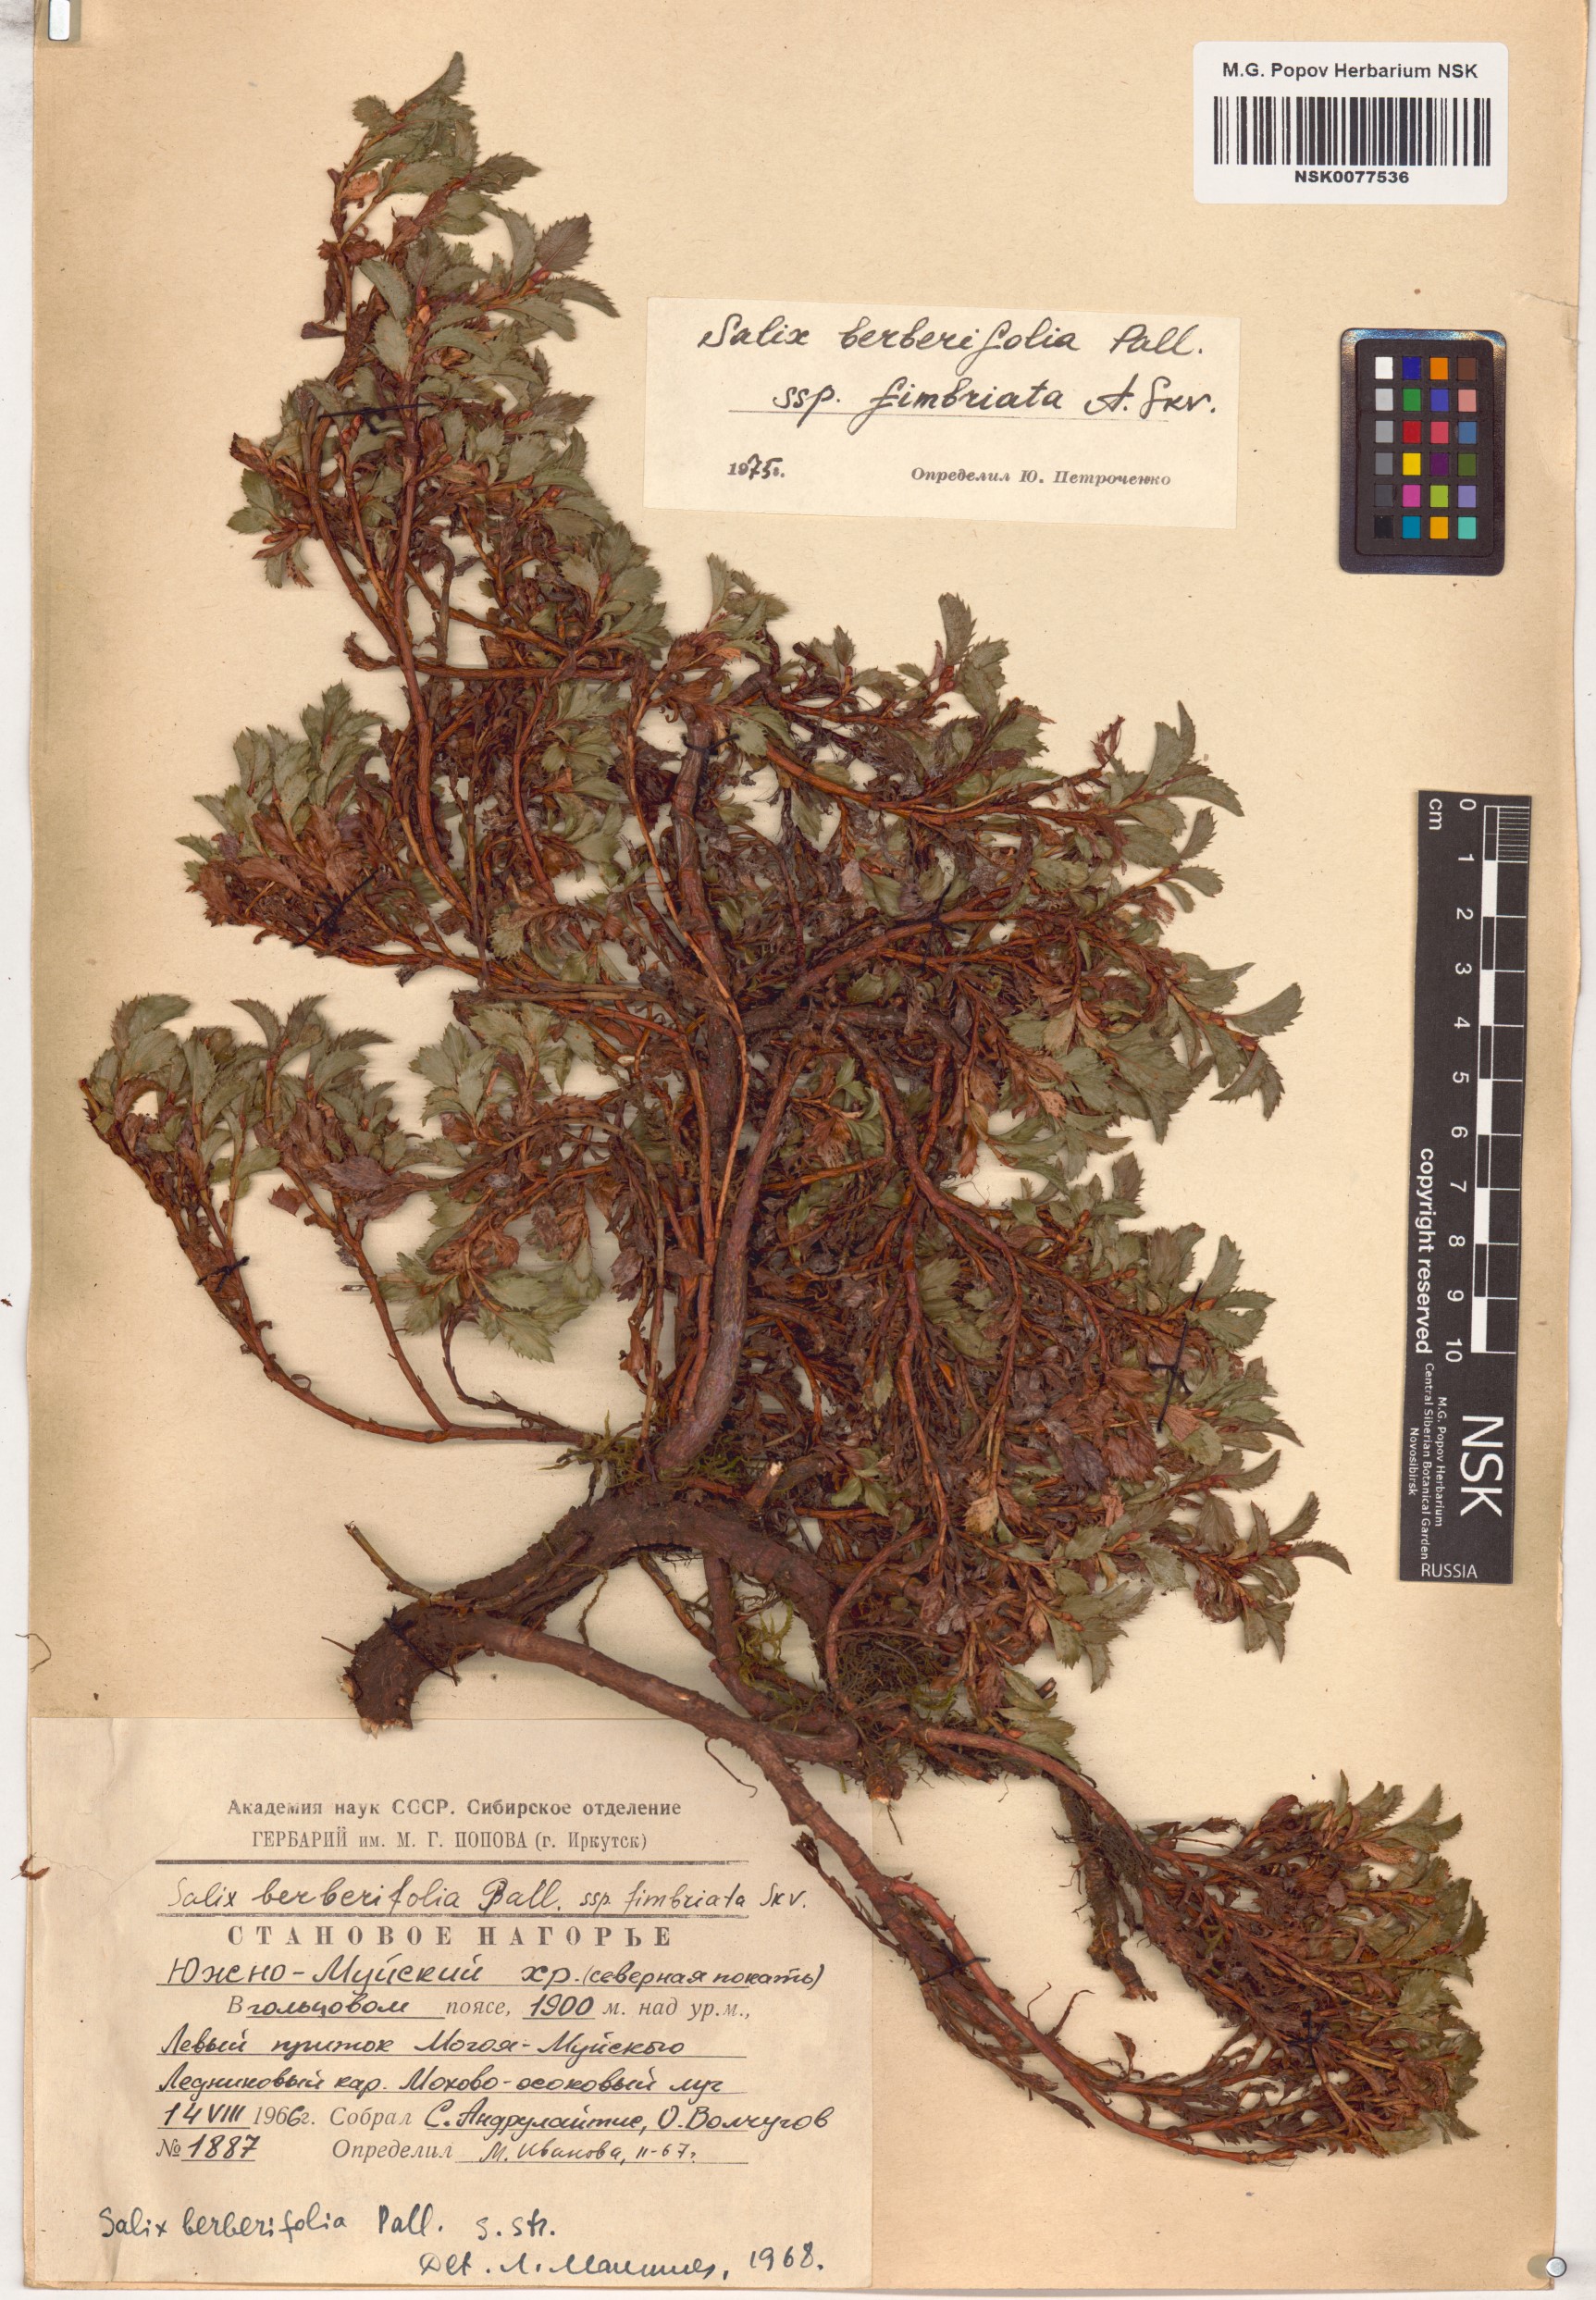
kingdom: Plantae
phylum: Tracheophyta
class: Magnoliopsida
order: Malpighiales
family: Salicaceae
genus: Salix
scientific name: Salix berberifolia
